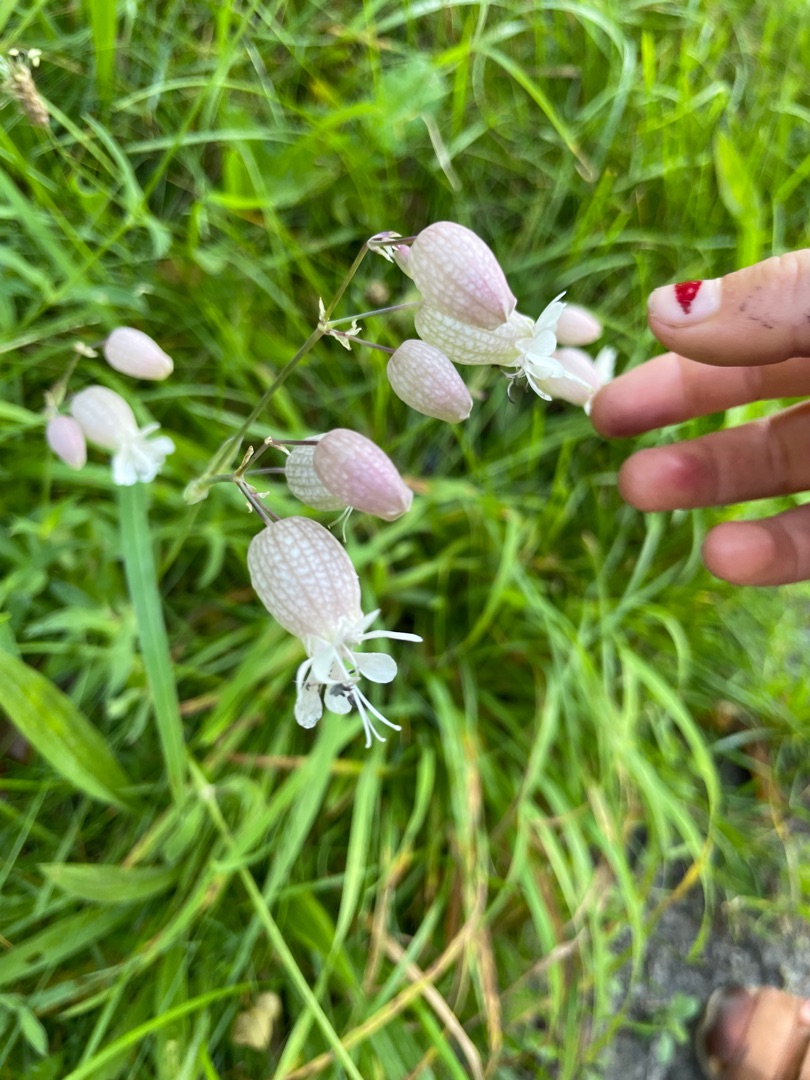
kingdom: Plantae
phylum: Tracheophyta
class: Magnoliopsida
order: Caryophyllales
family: Caryophyllaceae
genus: Silene
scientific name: Silene vulgaris
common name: Blæresmælde
